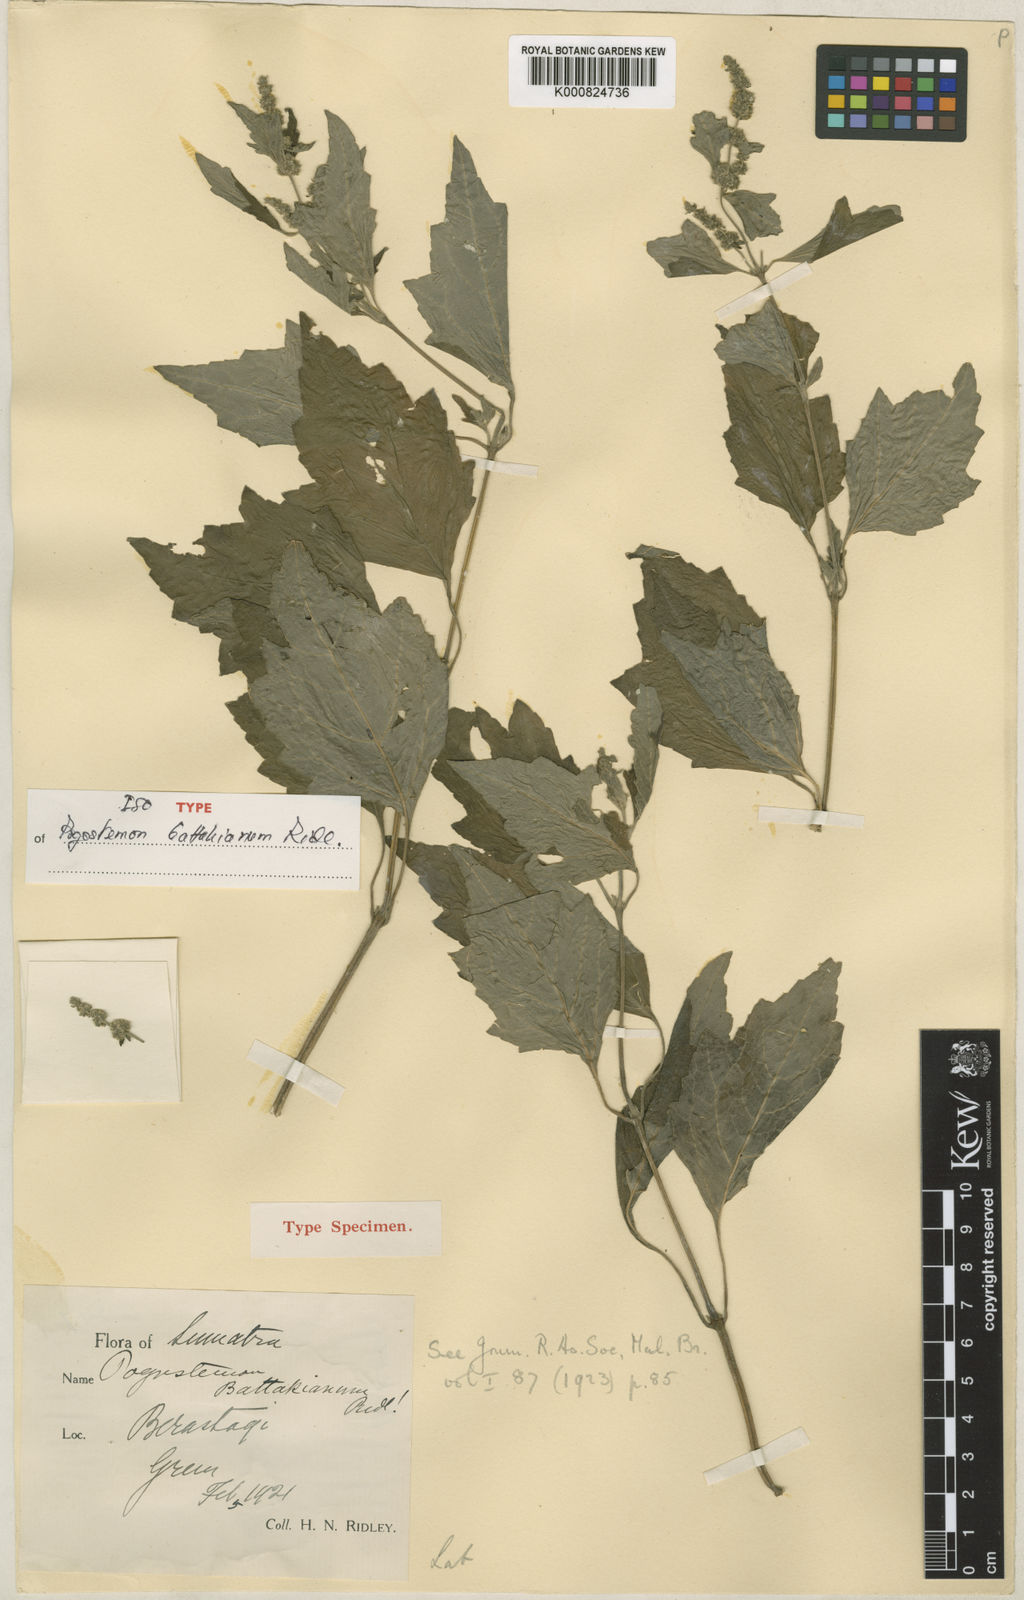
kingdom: Plantae
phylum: Tracheophyta
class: Magnoliopsida
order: Lamiales
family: Lamiaceae
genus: Pogostemon
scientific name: Pogostemon cablin
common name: Patchouli-plant
